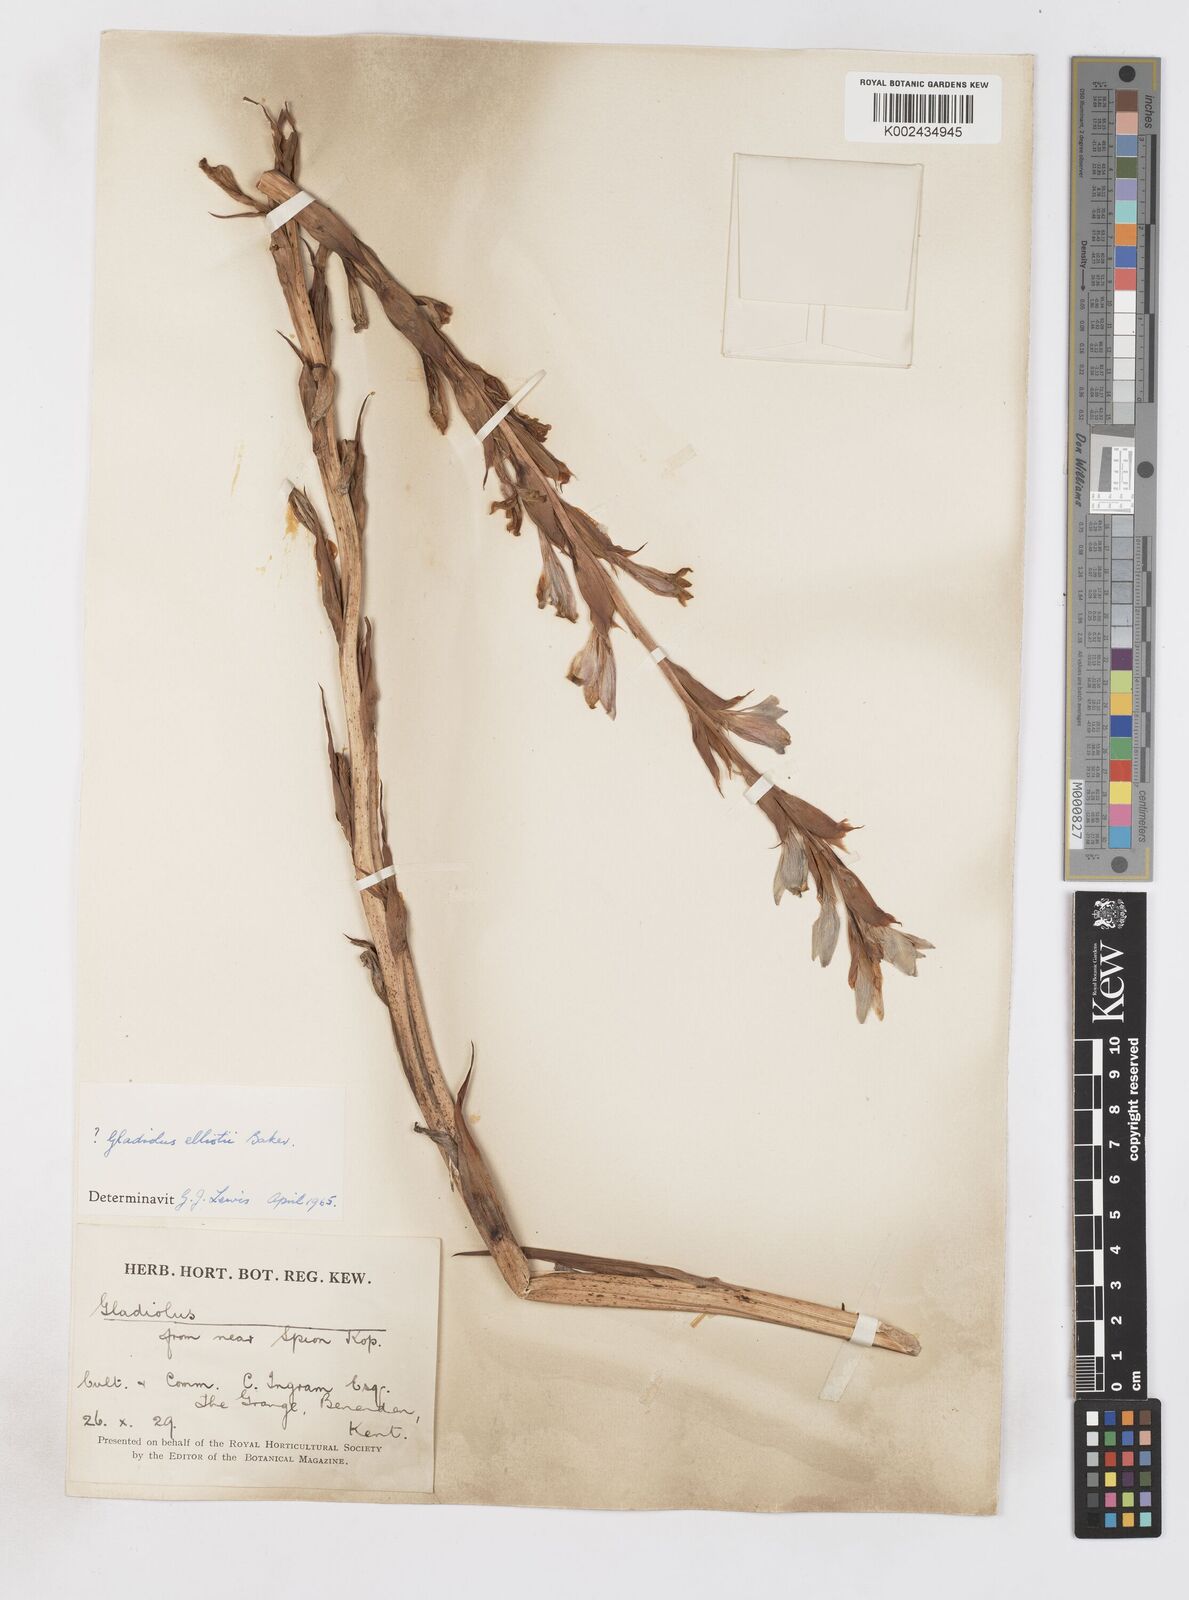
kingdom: Plantae
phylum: Tracheophyta
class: Liliopsida
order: Asparagales
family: Iridaceae
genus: Gladiolus
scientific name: Gladiolus sericeovillosus
